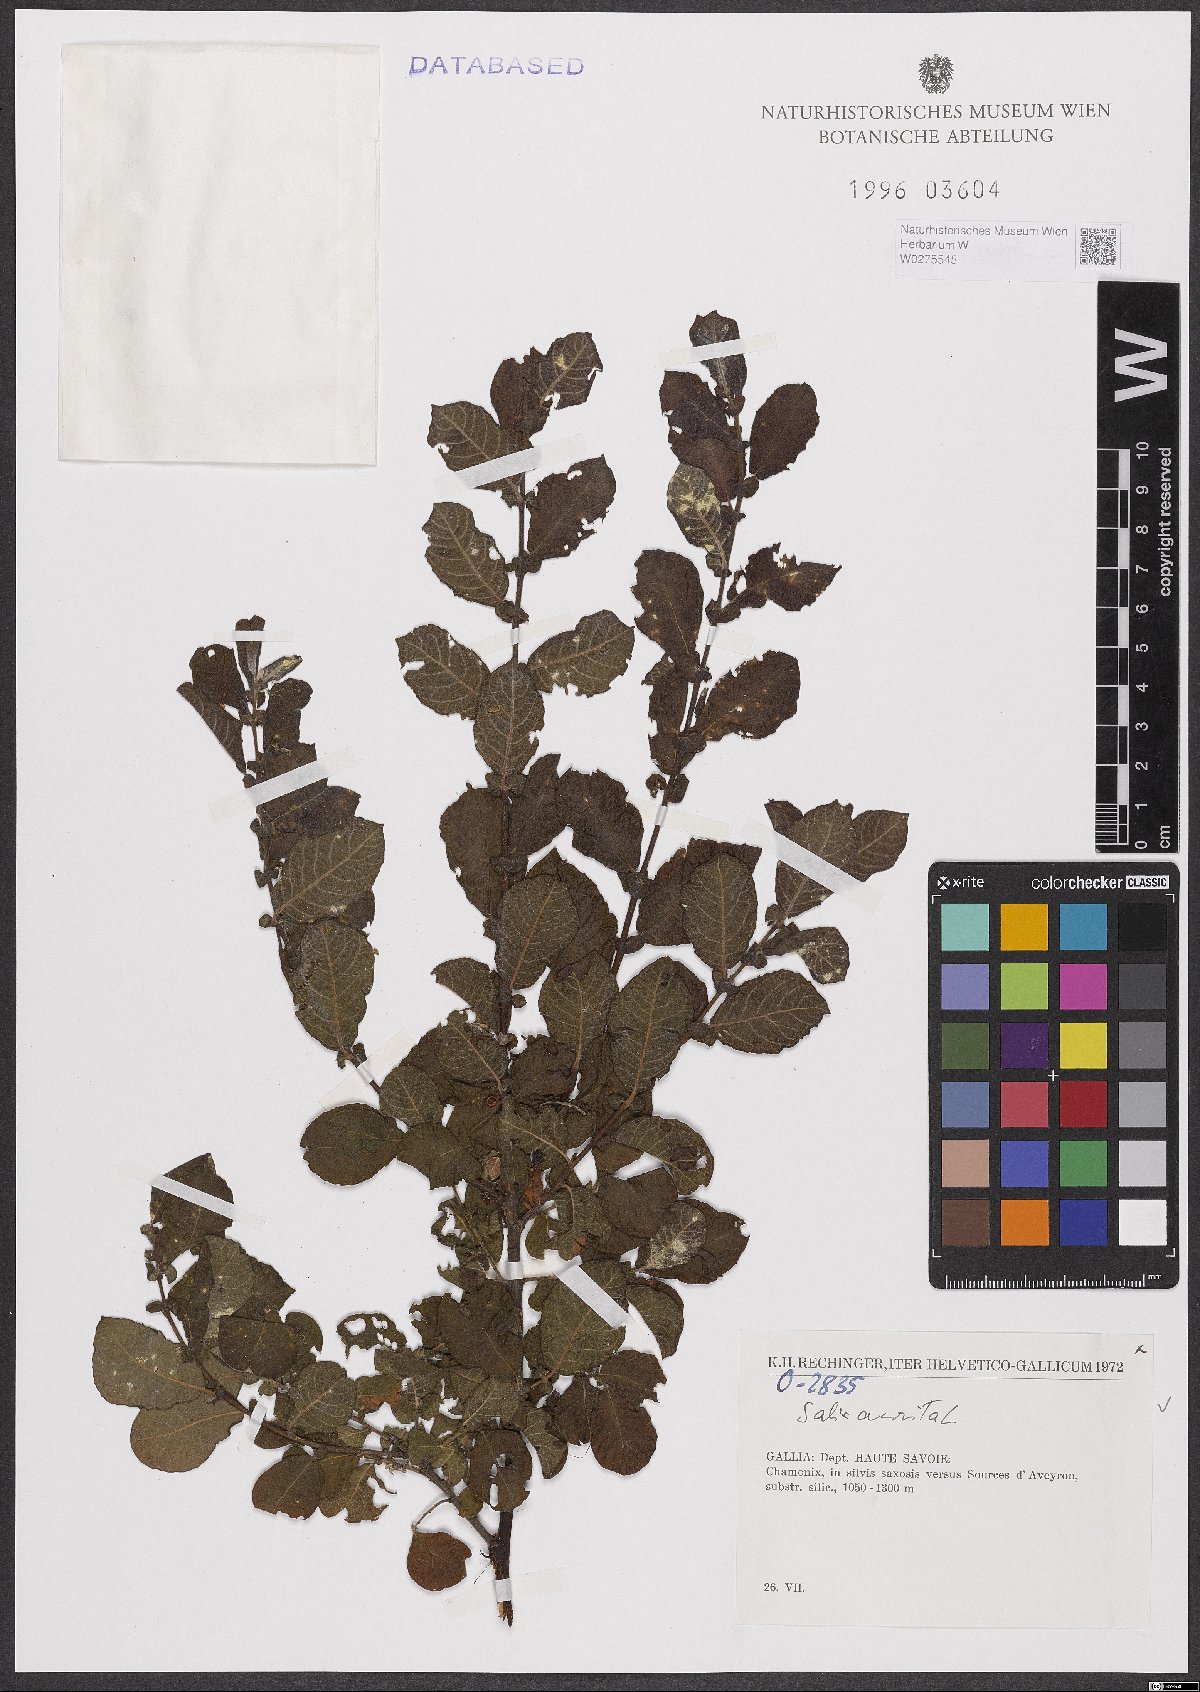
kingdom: Plantae
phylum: Tracheophyta
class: Magnoliopsida
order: Malpighiales
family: Salicaceae
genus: Salix
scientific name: Salix aurita
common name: Eared willow
